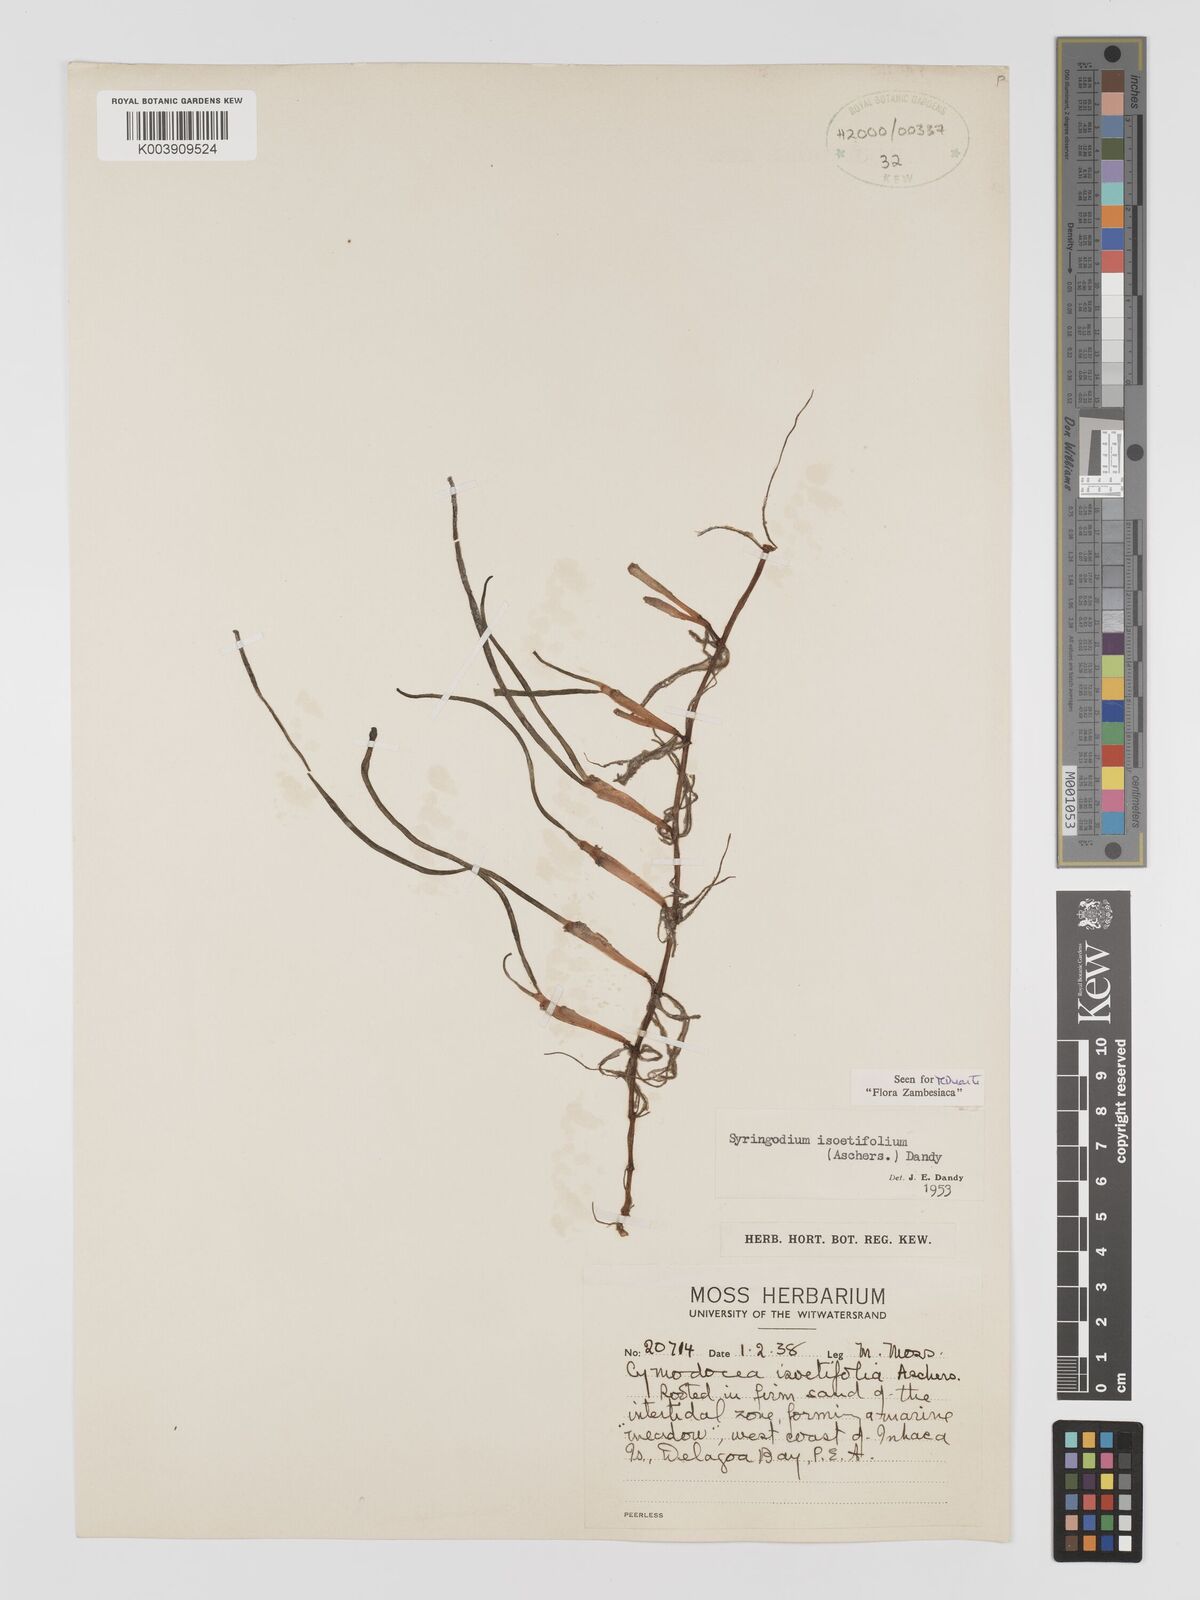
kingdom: Plantae
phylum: Tracheophyta
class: Liliopsida
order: Alismatales
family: Cymodoceaceae
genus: Syringodium
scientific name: Syringodium isoetifolium
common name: Species code: si
